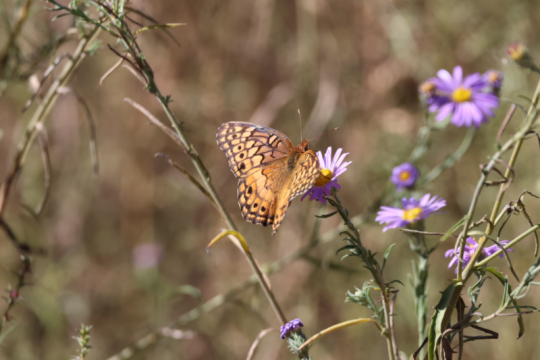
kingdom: Animalia
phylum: Arthropoda
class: Insecta
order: Lepidoptera
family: Nymphalidae
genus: Euptoieta
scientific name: Euptoieta claudia
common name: Variegated Fritillary
